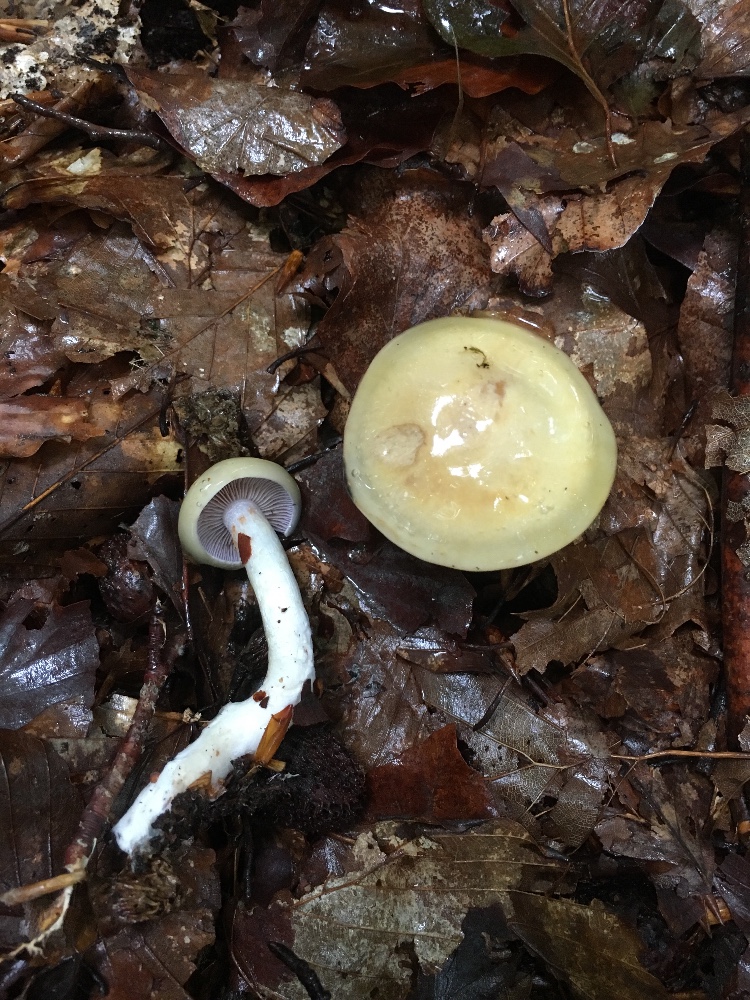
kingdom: Fungi
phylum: Basidiomycota
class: Agaricomycetes
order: Agaricales
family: Cortinariaceae
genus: Cortinarius
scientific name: Cortinarius delibutus
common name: gul slørhat
